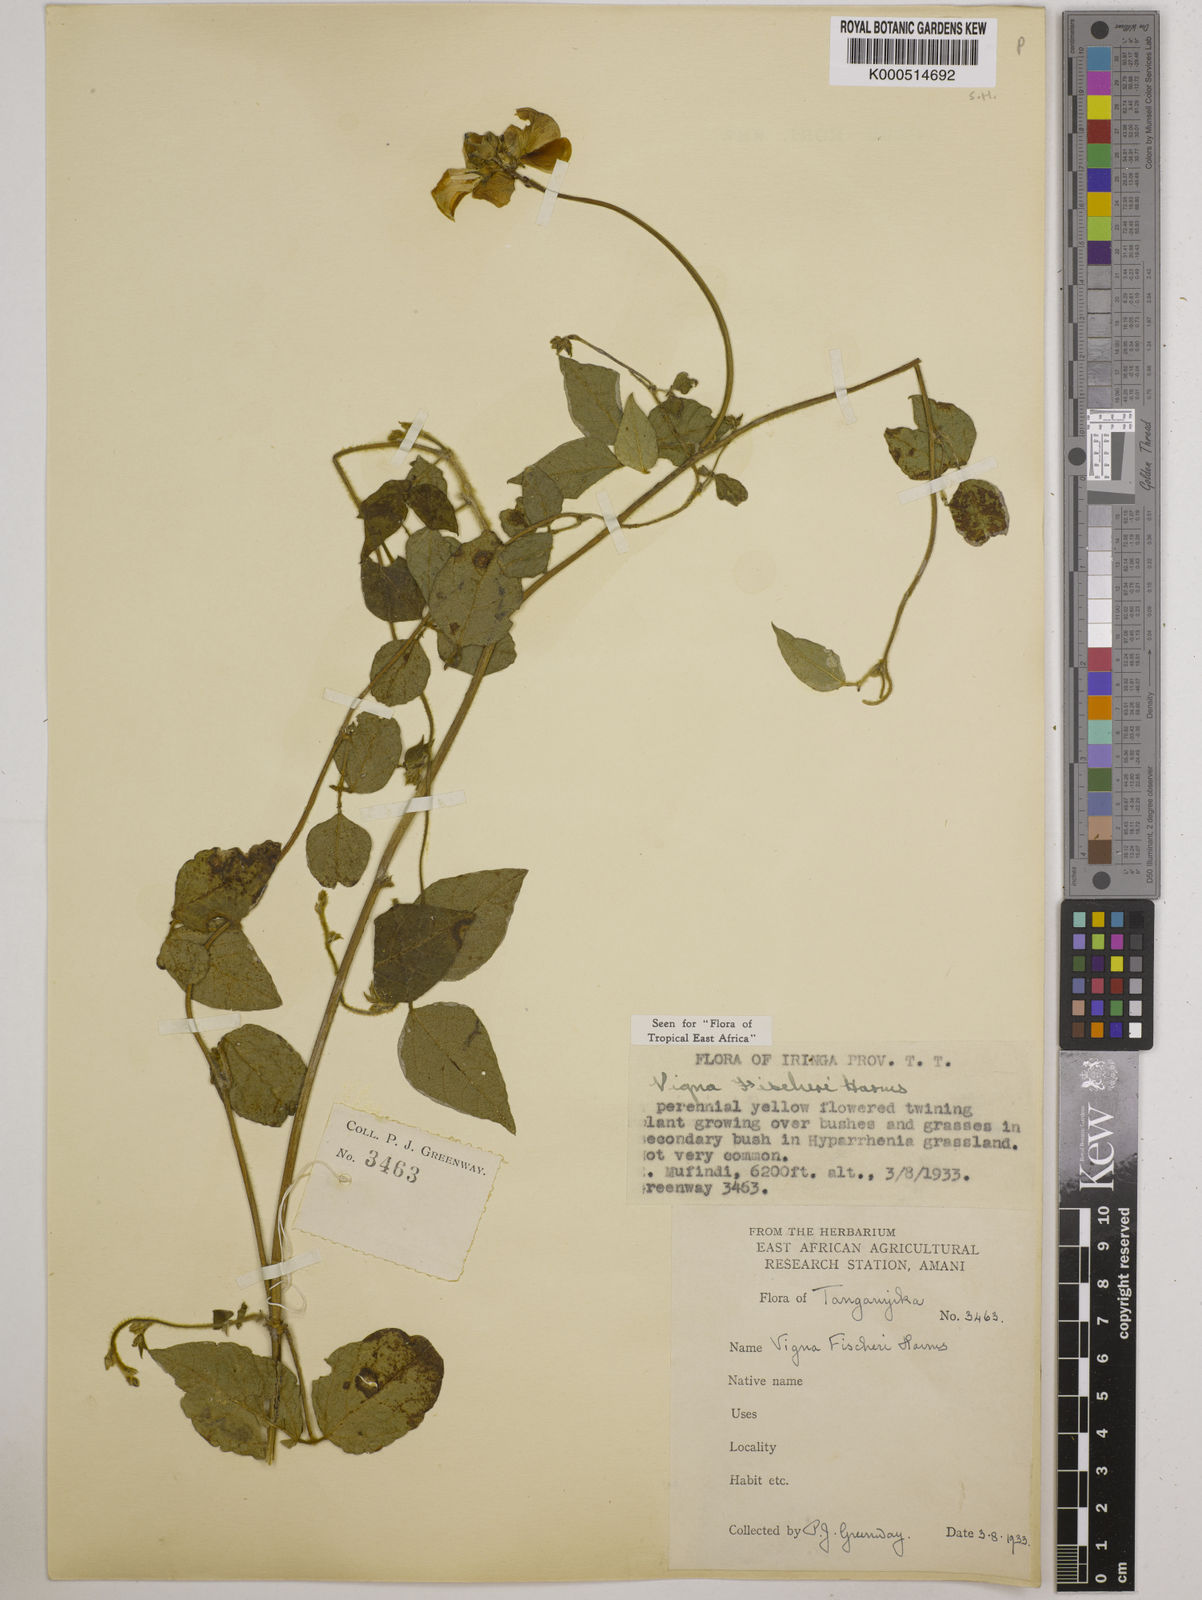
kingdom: Plantae
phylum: Tracheophyta
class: Magnoliopsida
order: Fabales
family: Fabaceae
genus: Vigna
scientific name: Vigna fischeri
